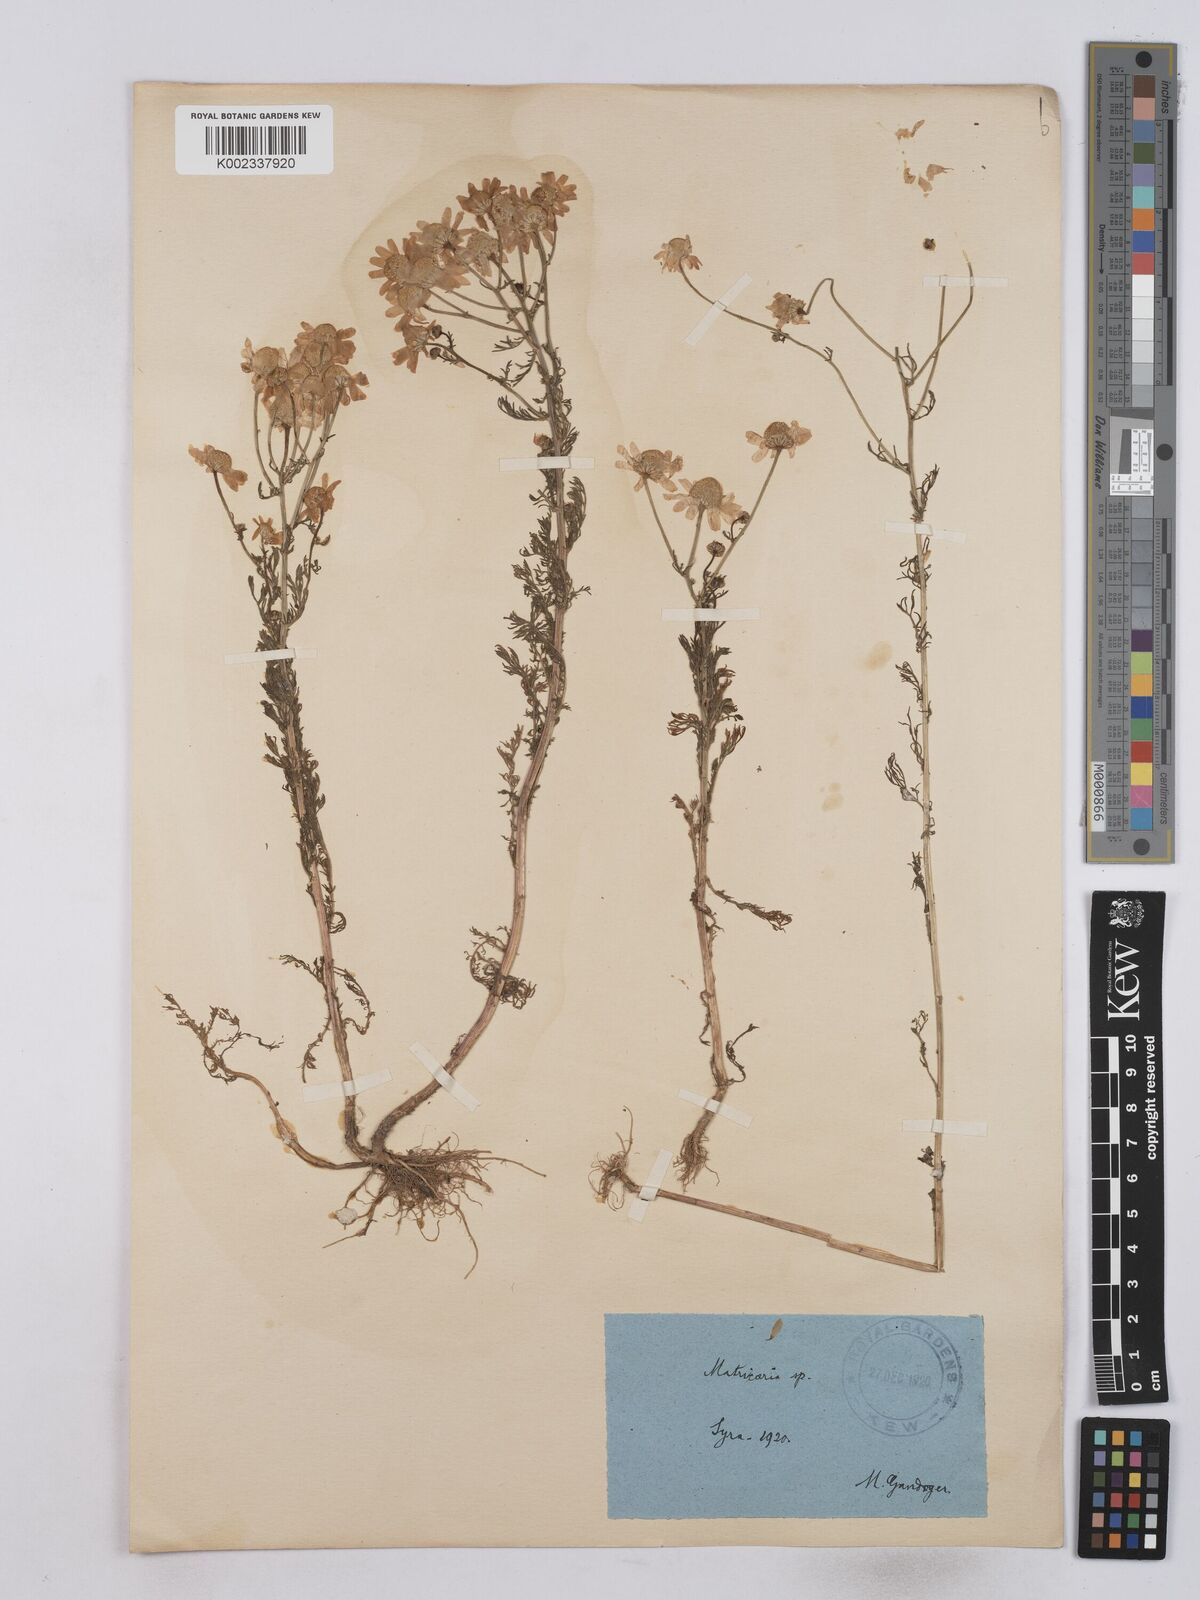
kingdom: Plantae
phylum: Tracheophyta
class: Magnoliopsida
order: Asterales
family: Asteraceae
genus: Tripleurospermum
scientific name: Tripleurospermum subpolare
